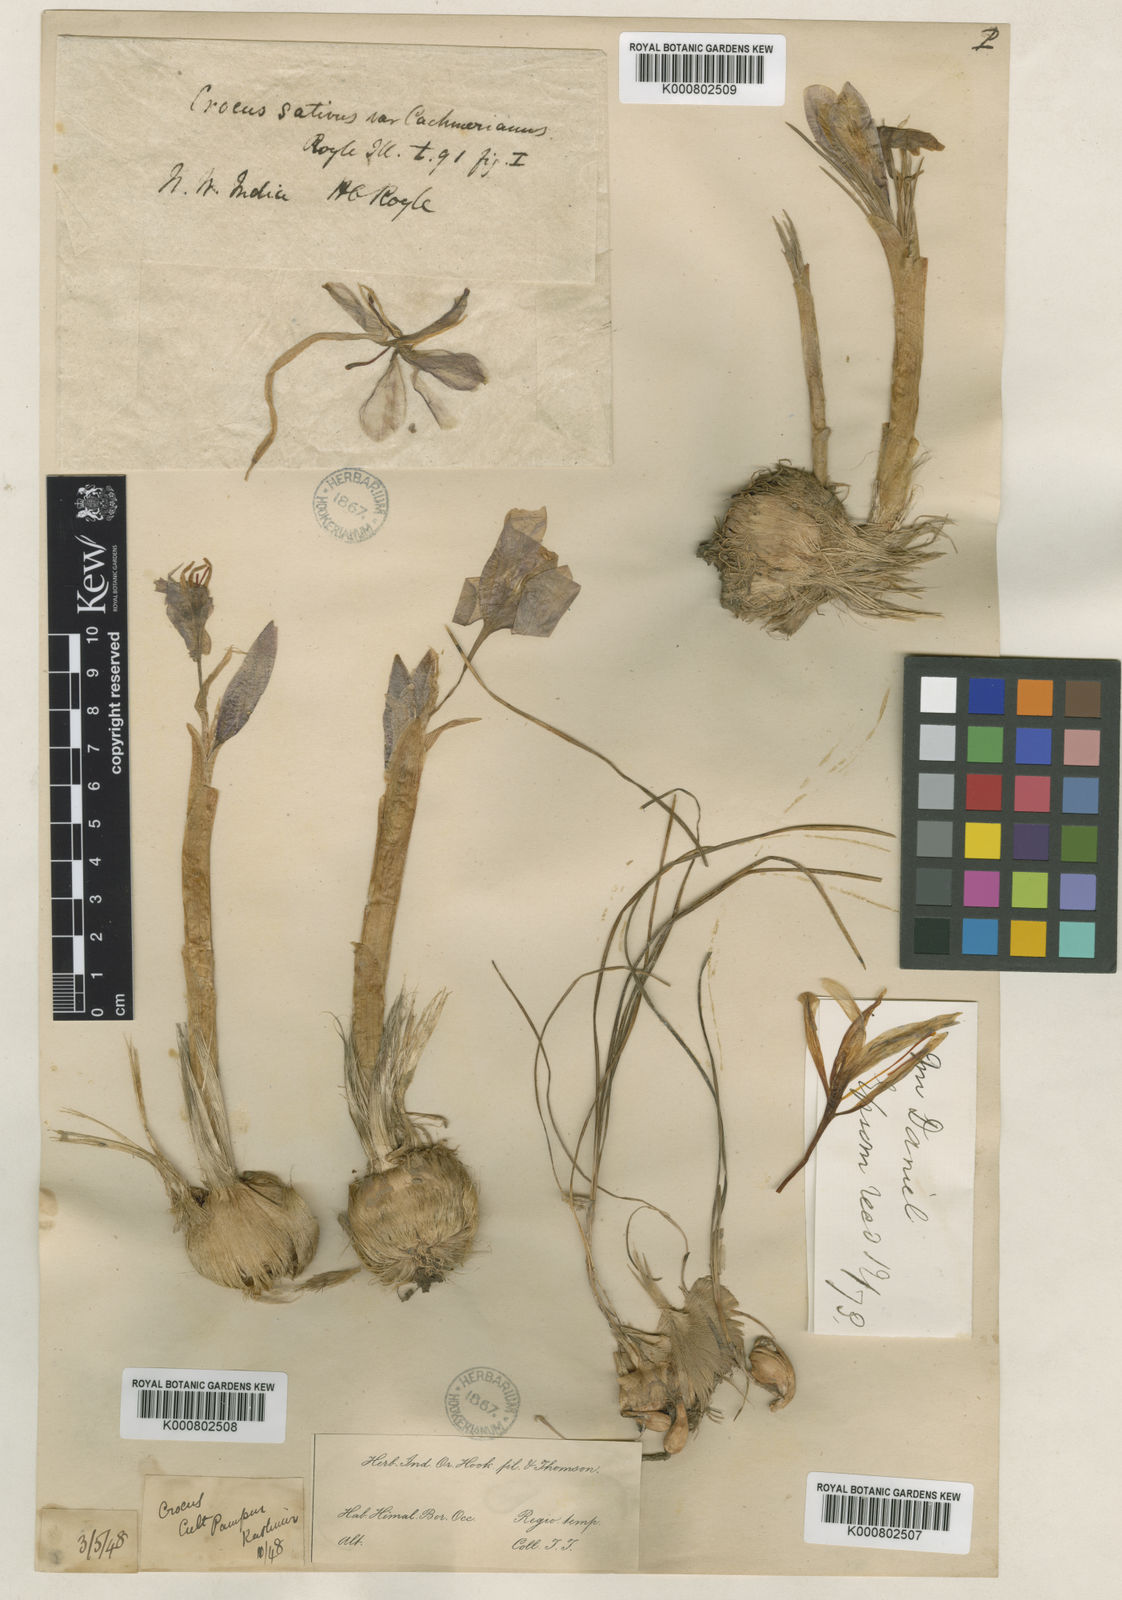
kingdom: Plantae
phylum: Tracheophyta
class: Liliopsida
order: Asparagales
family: Iridaceae
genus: Crocus
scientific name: Crocus sativus
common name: Saffron crocus
